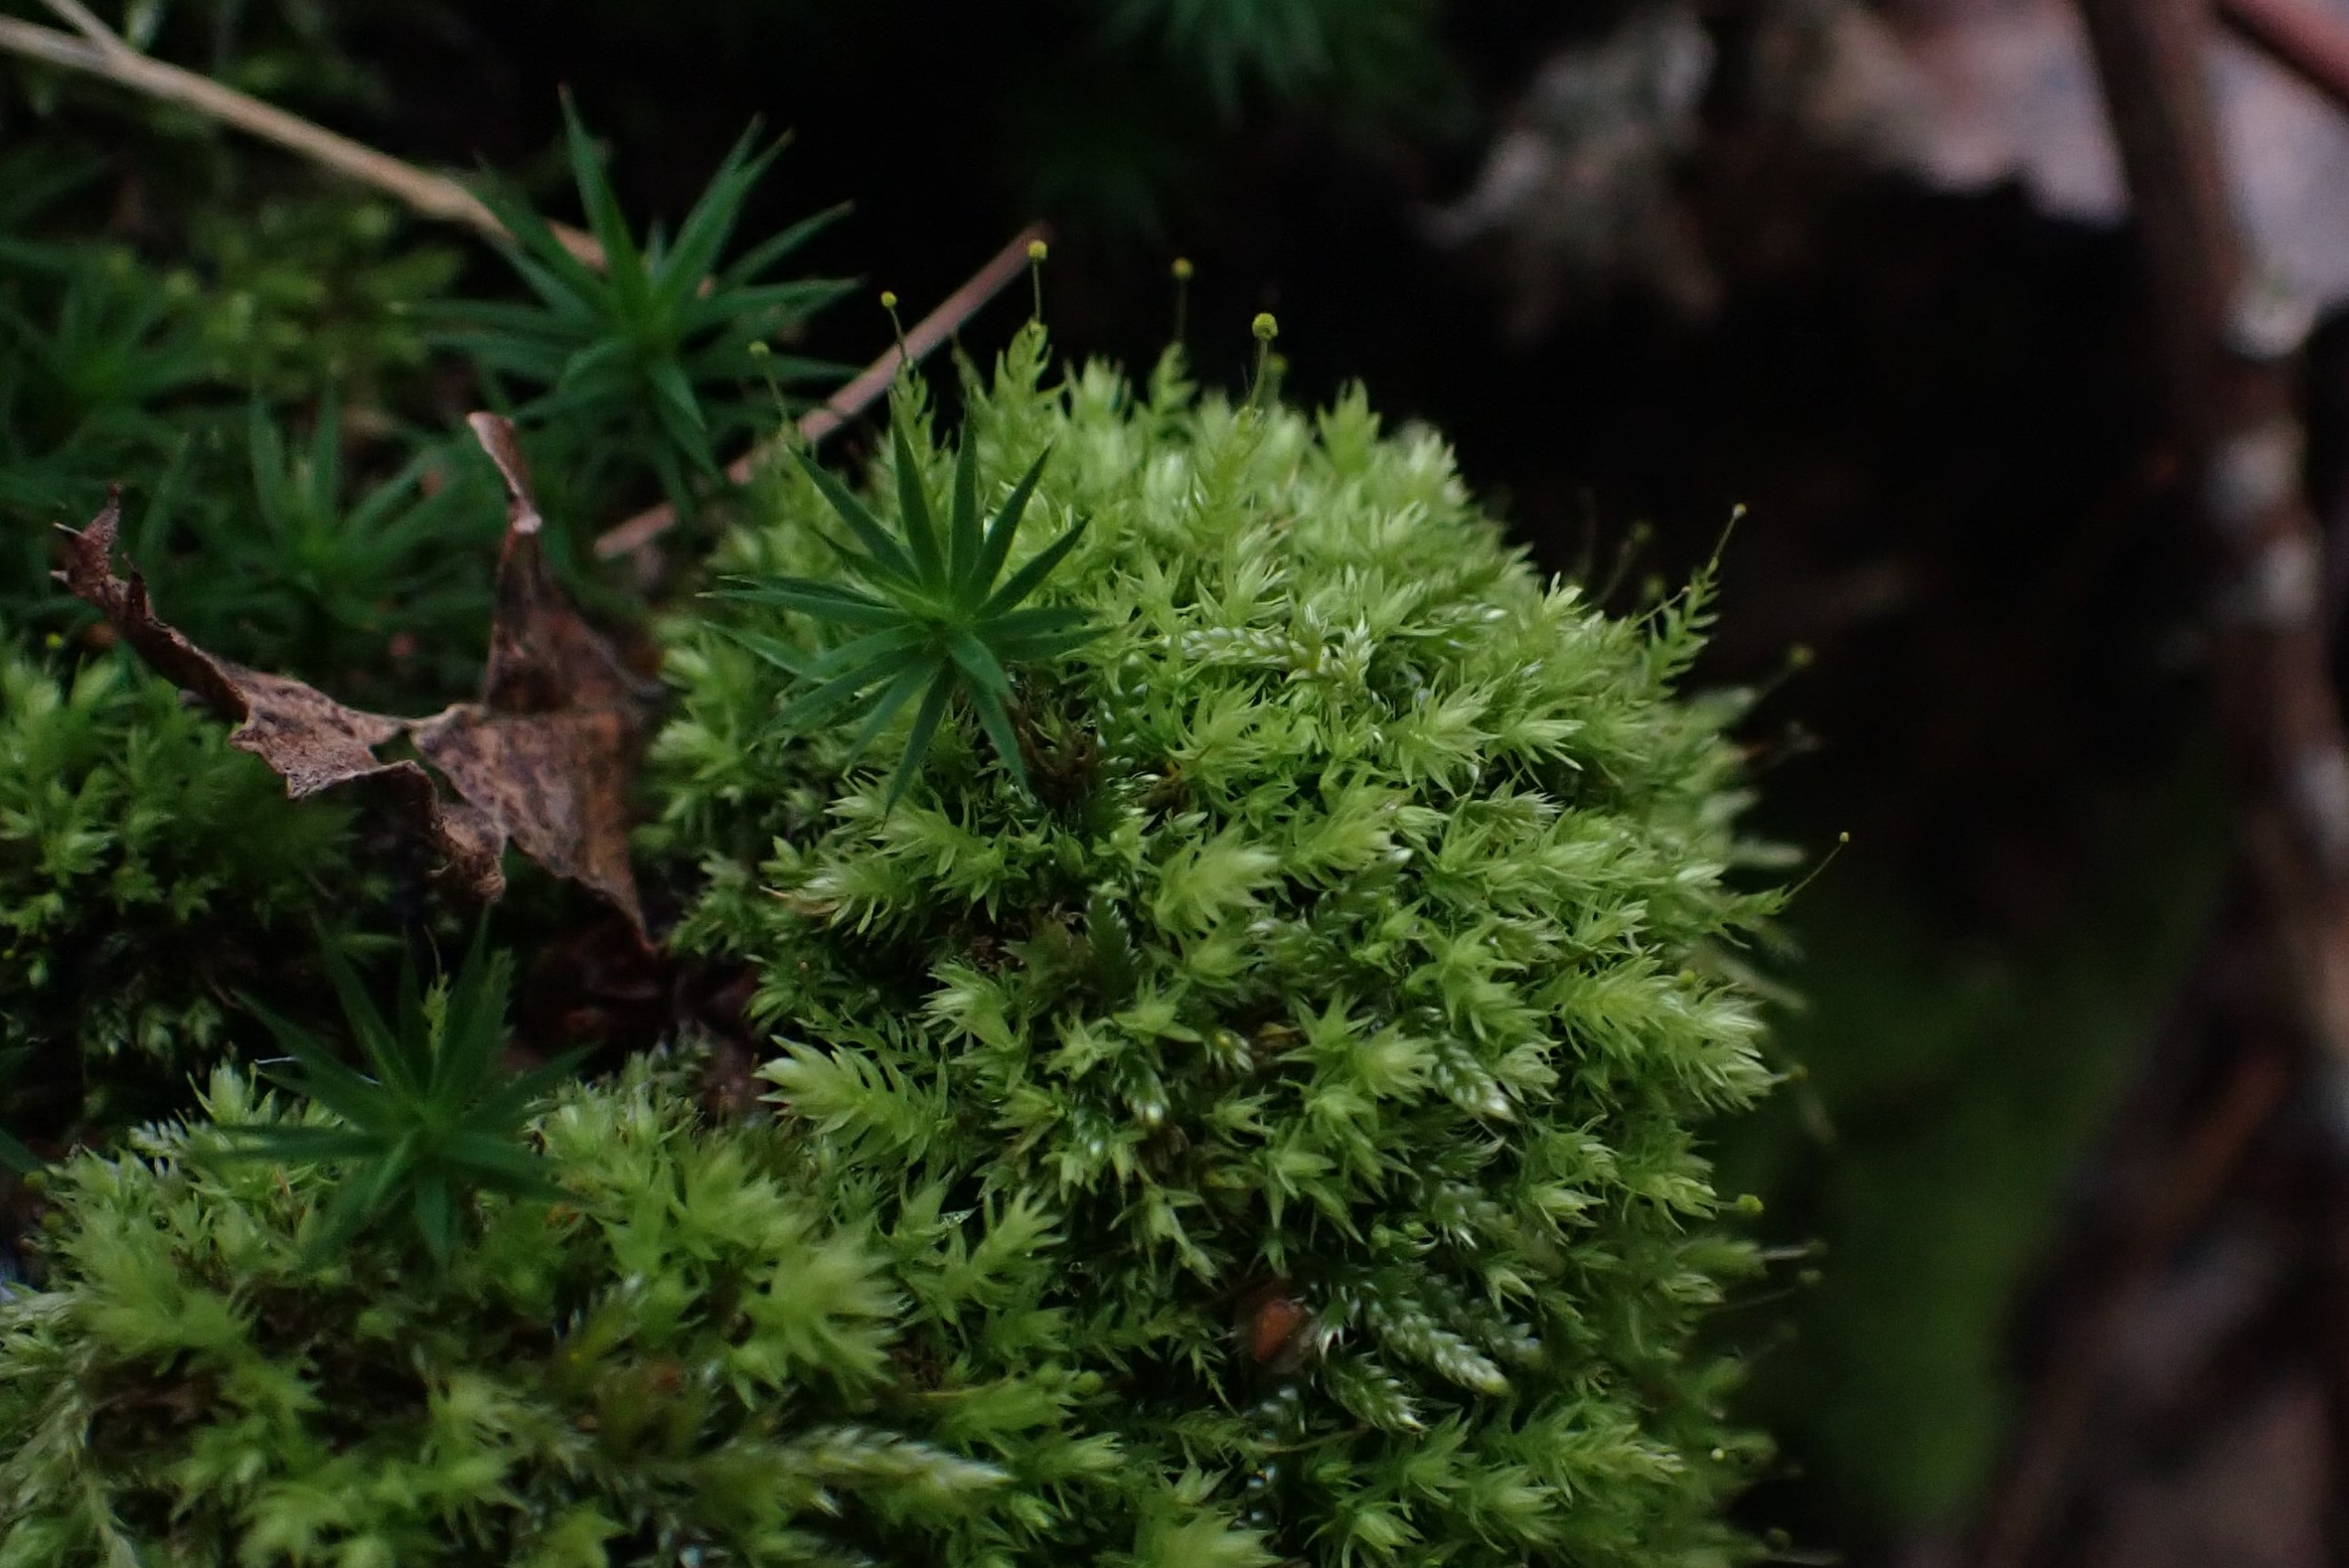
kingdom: Plantae
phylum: Bryophyta
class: Bryopsida
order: Aulacomniales
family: Aulacomniaceae
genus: Aulacomnium
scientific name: Aulacomnium androgynum
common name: Kugle-filtmos
